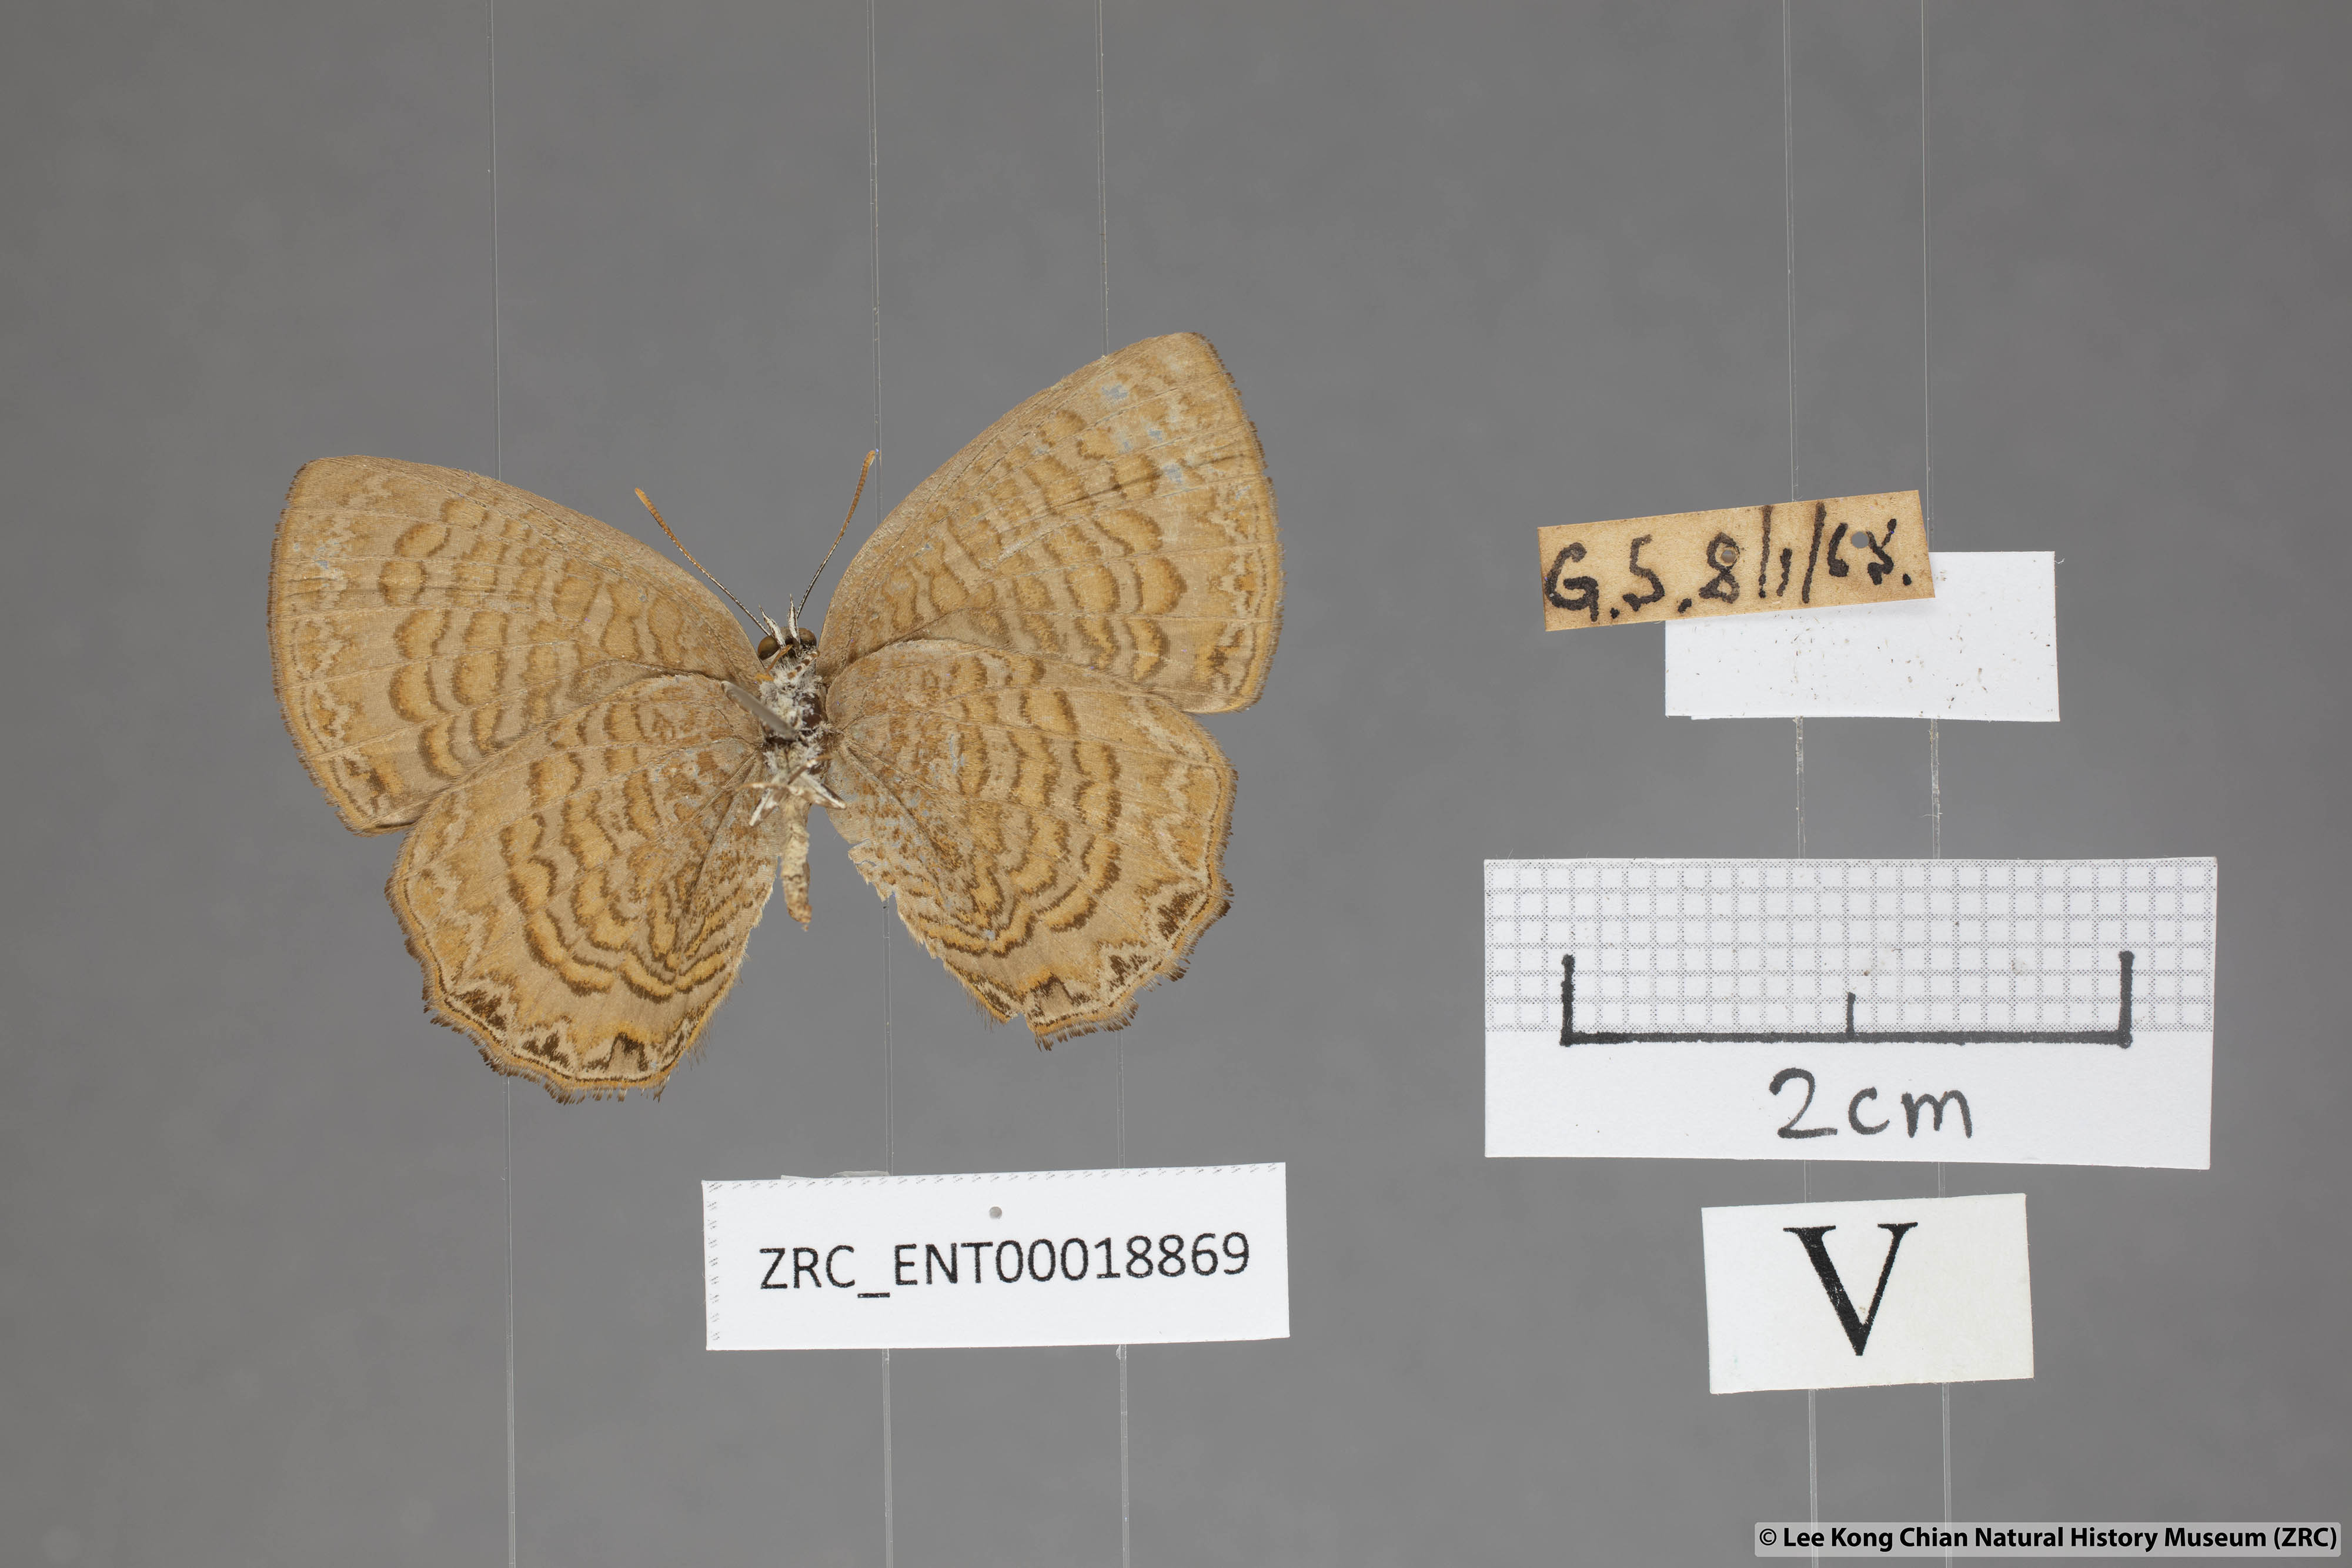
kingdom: Animalia
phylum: Arthropoda
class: Insecta
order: Lepidoptera
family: Lycaenidae
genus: Poritia
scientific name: Poritia sumatrae
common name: Sumatran gem
